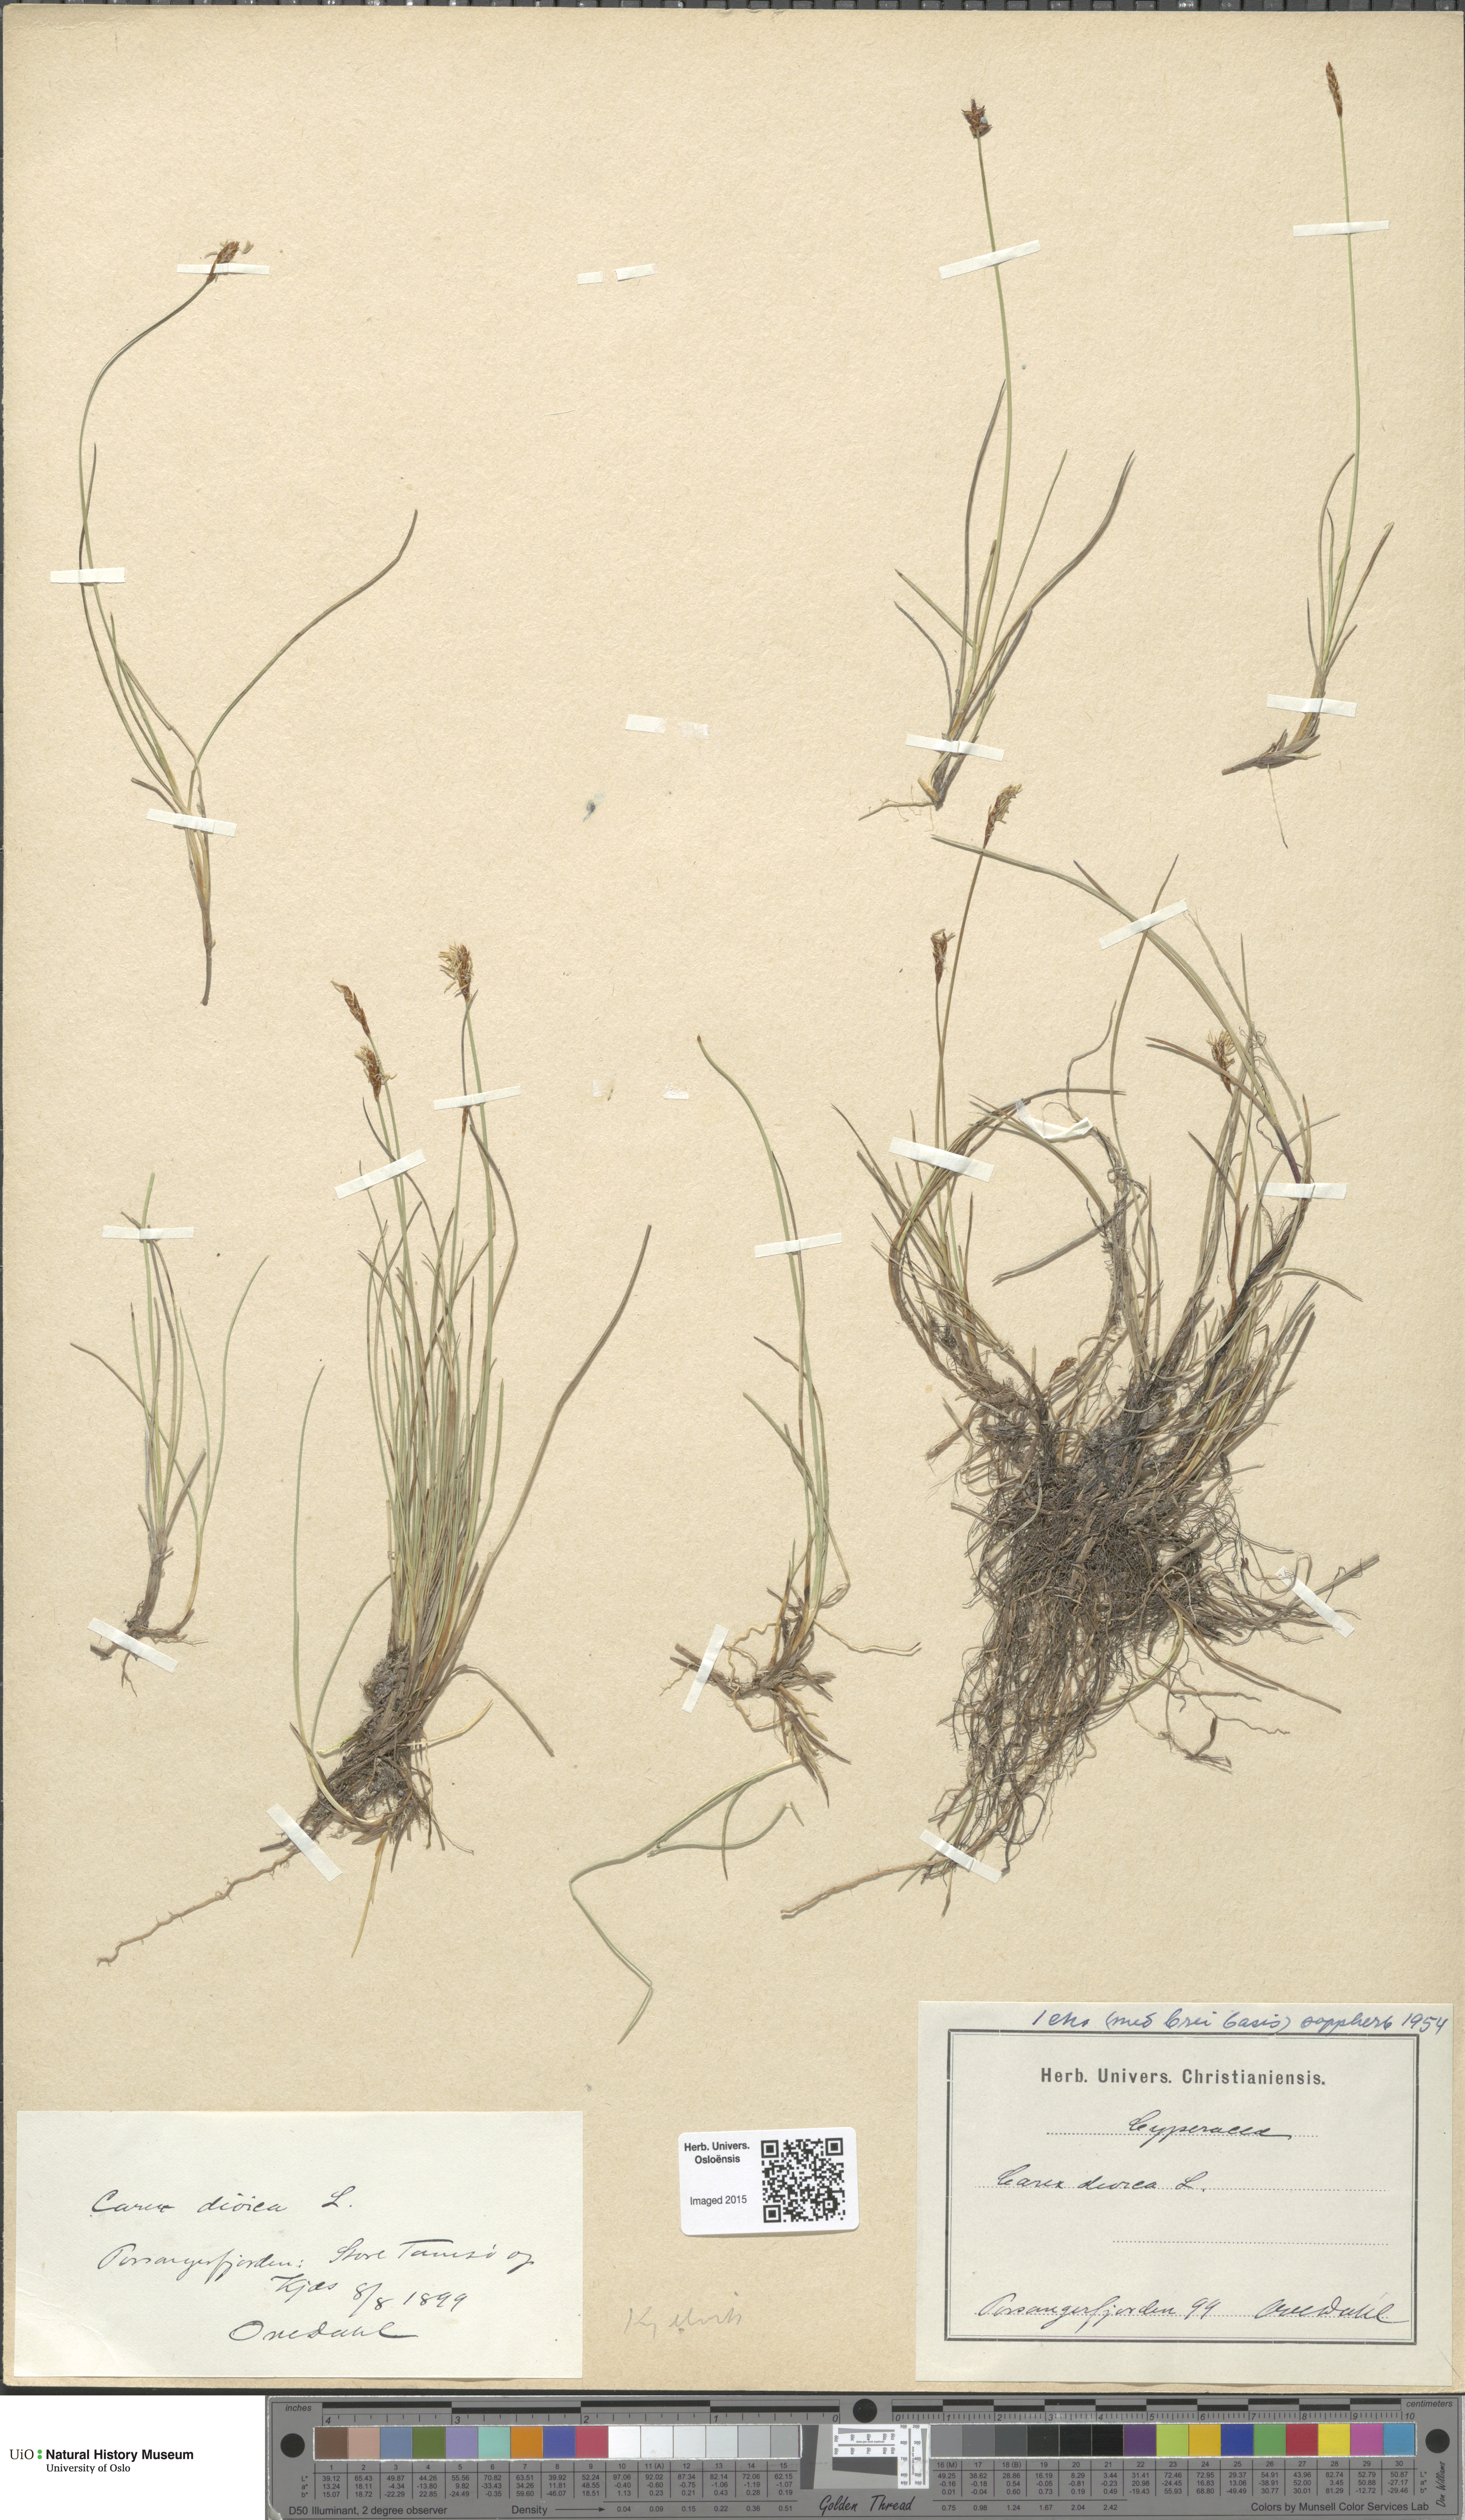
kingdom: Plantae
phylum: Tracheophyta
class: Liliopsida
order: Poales
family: Cyperaceae
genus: Carex
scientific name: Carex dioica
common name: Dioecious sedge
